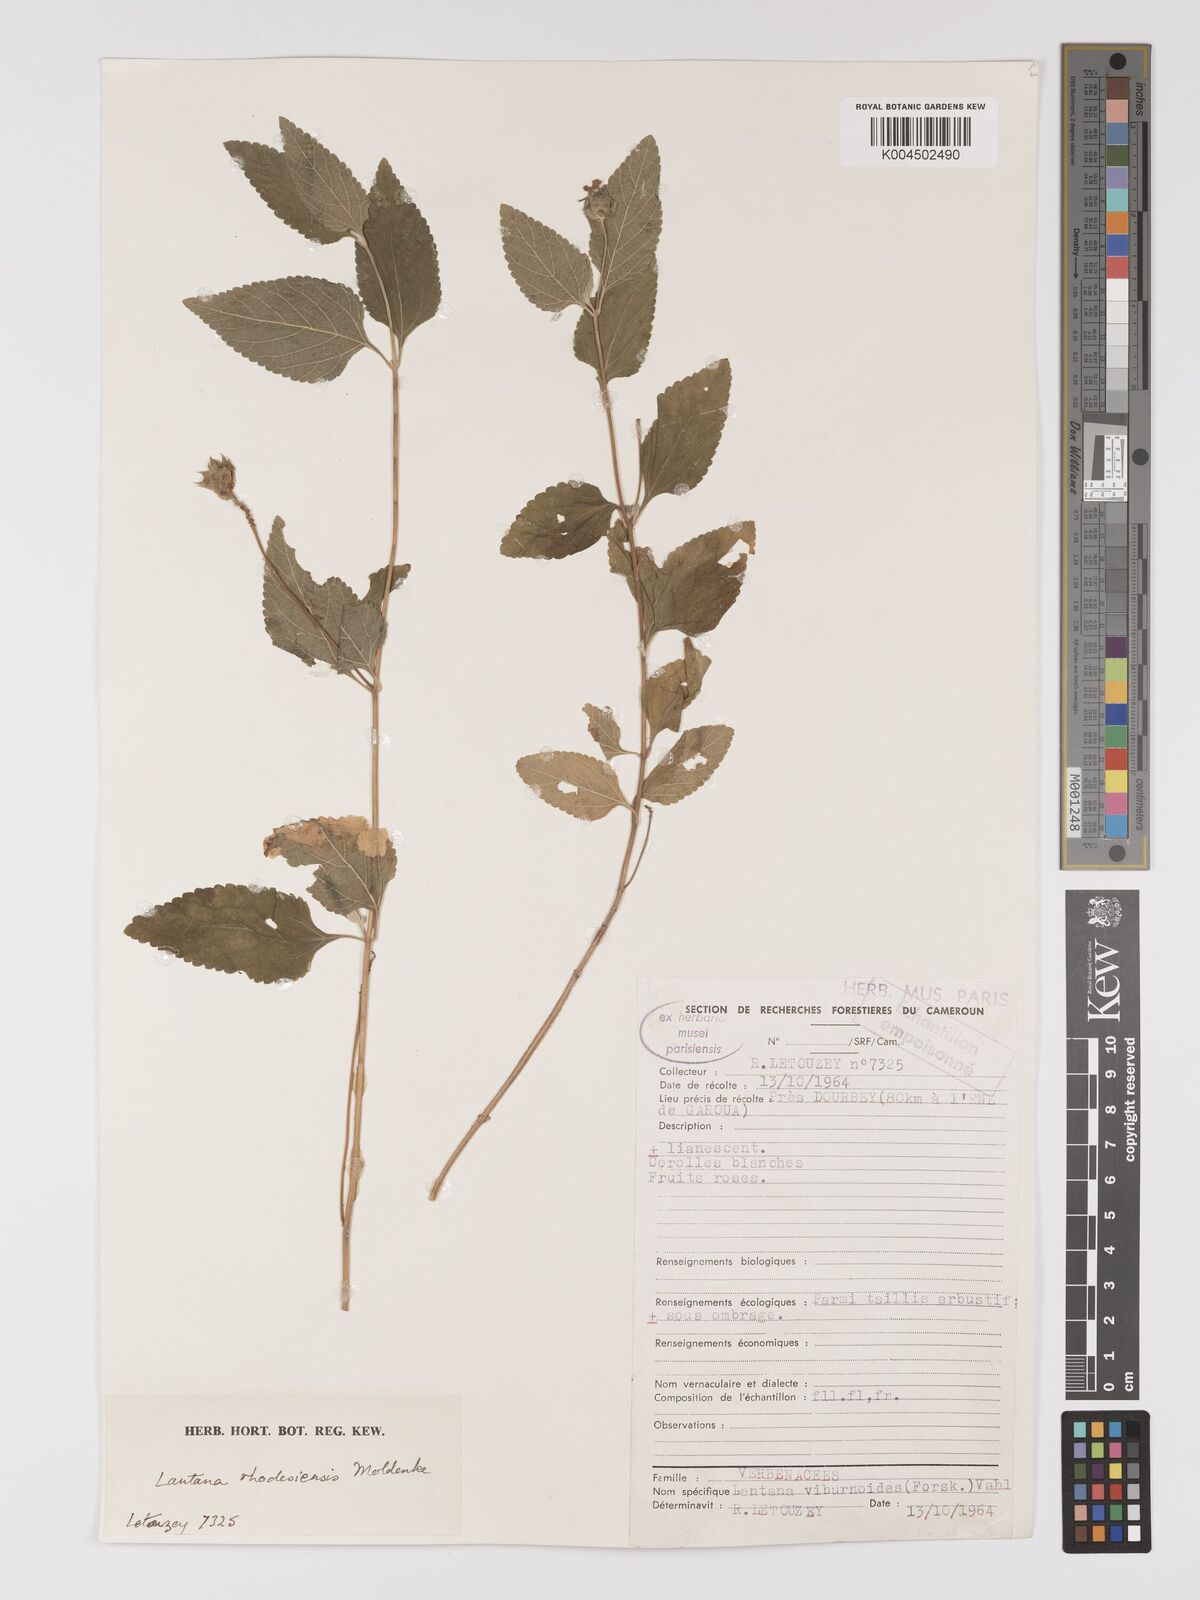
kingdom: Plantae
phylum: Tracheophyta
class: Magnoliopsida
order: Lamiales
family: Verbenaceae
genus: Lantana
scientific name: Lantana ukambensis
